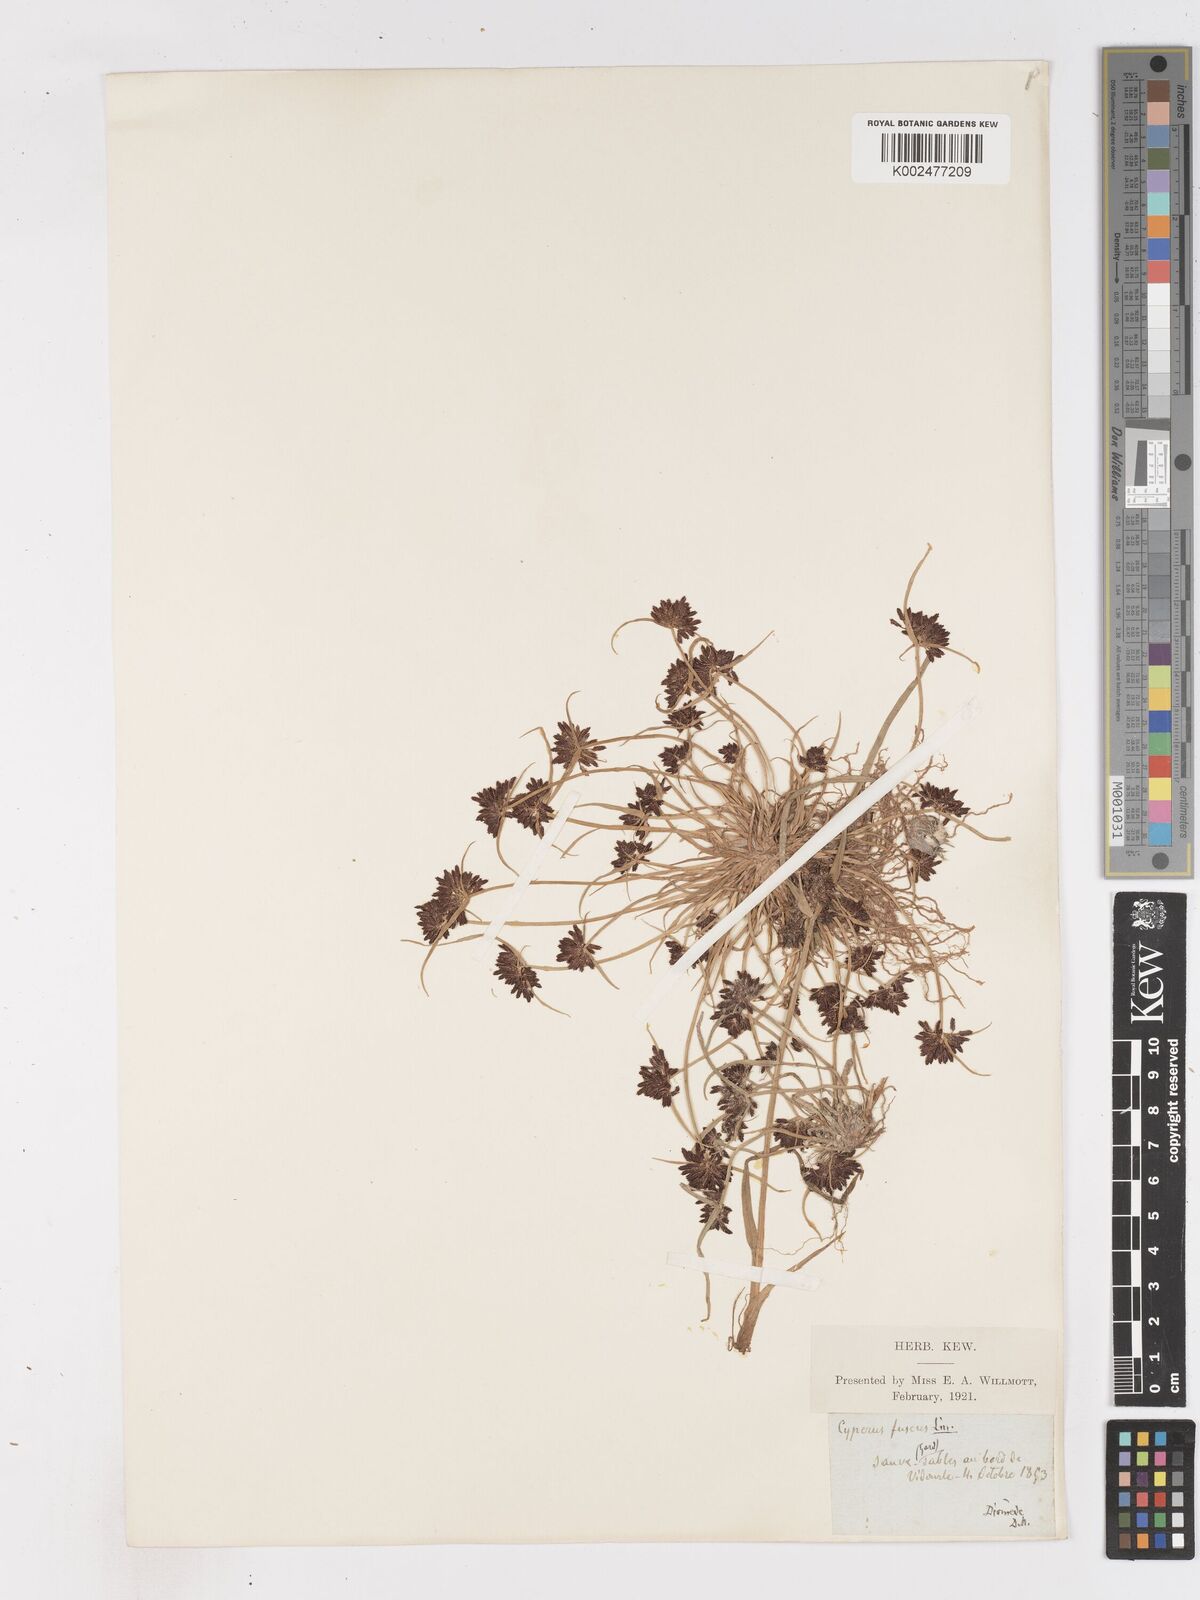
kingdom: Plantae
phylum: Tracheophyta
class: Liliopsida
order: Poales
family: Cyperaceae
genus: Cyperus
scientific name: Cyperus fuscus
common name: Brown galingale
